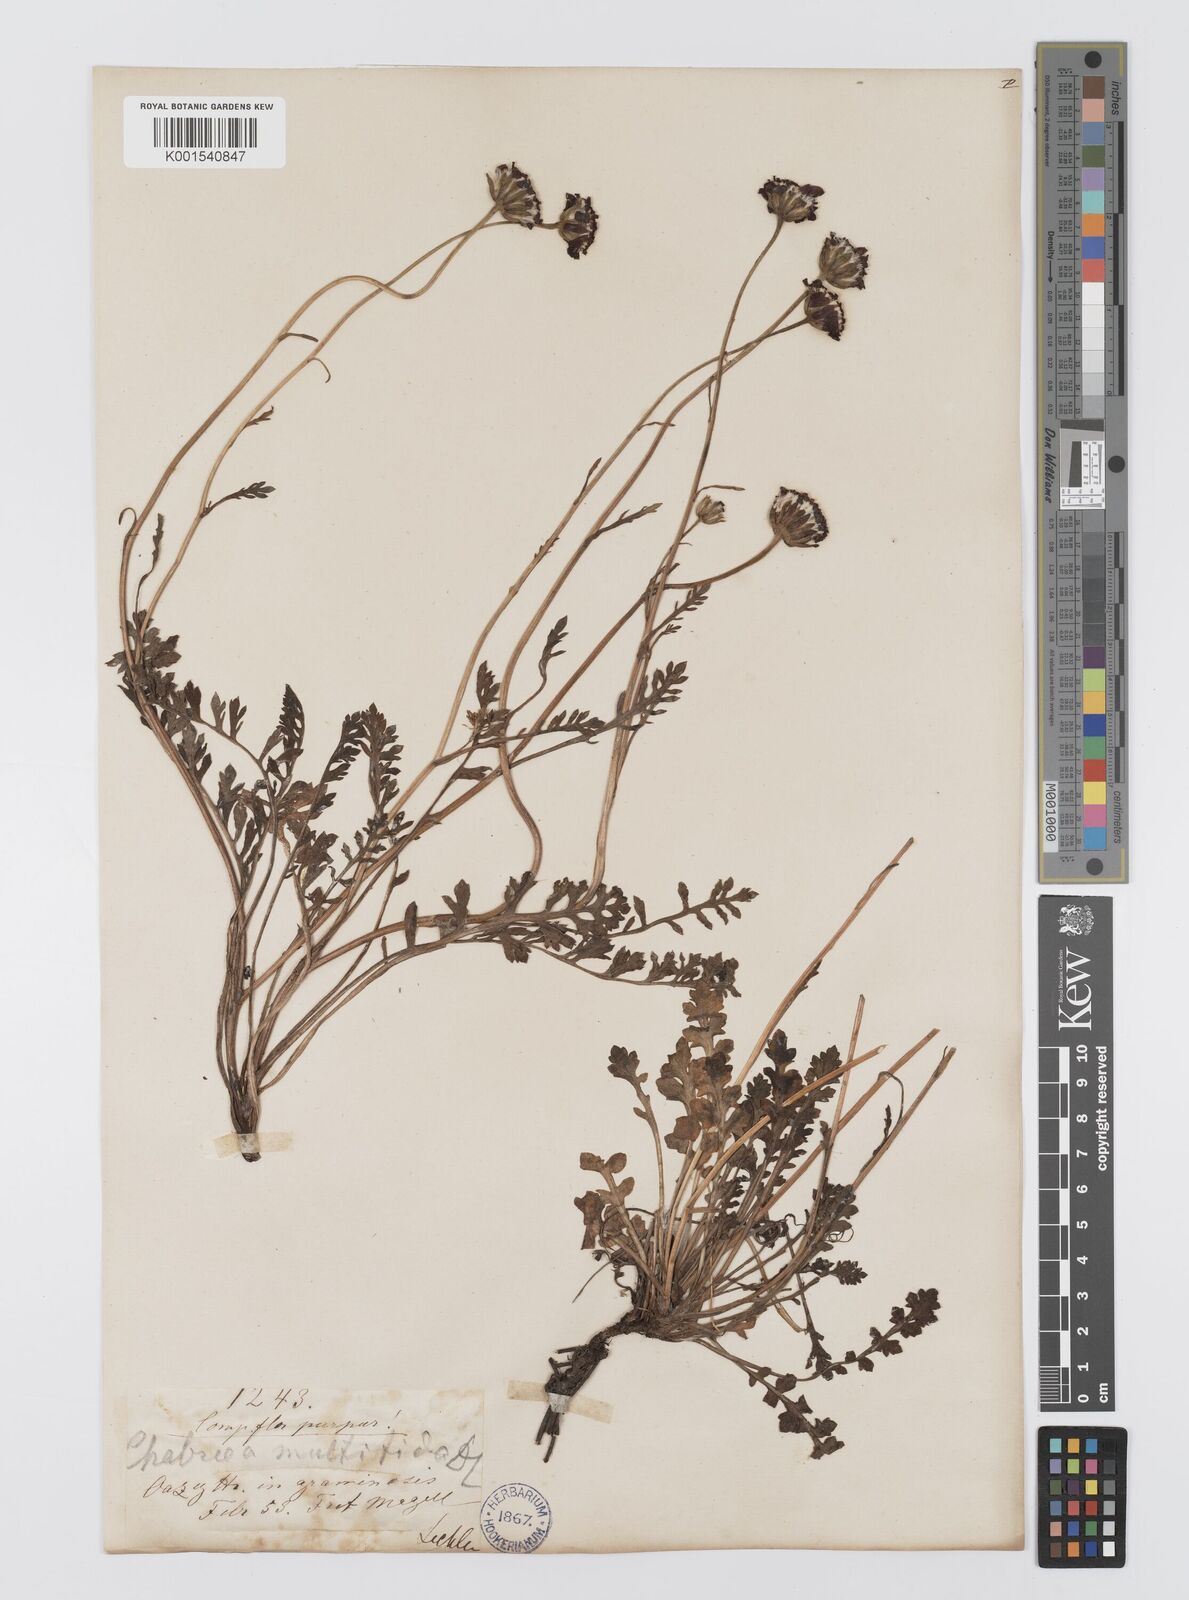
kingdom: Plantae
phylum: Tracheophyta
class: Magnoliopsida
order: Asterales
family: Asteraceae
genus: Leucheria
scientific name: Leucheria purpurea
